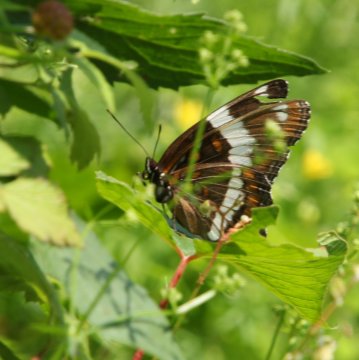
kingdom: Animalia
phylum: Arthropoda
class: Insecta
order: Lepidoptera
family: Nymphalidae
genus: Limenitis
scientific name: Limenitis arthemis
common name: Red-spotted Admiral
